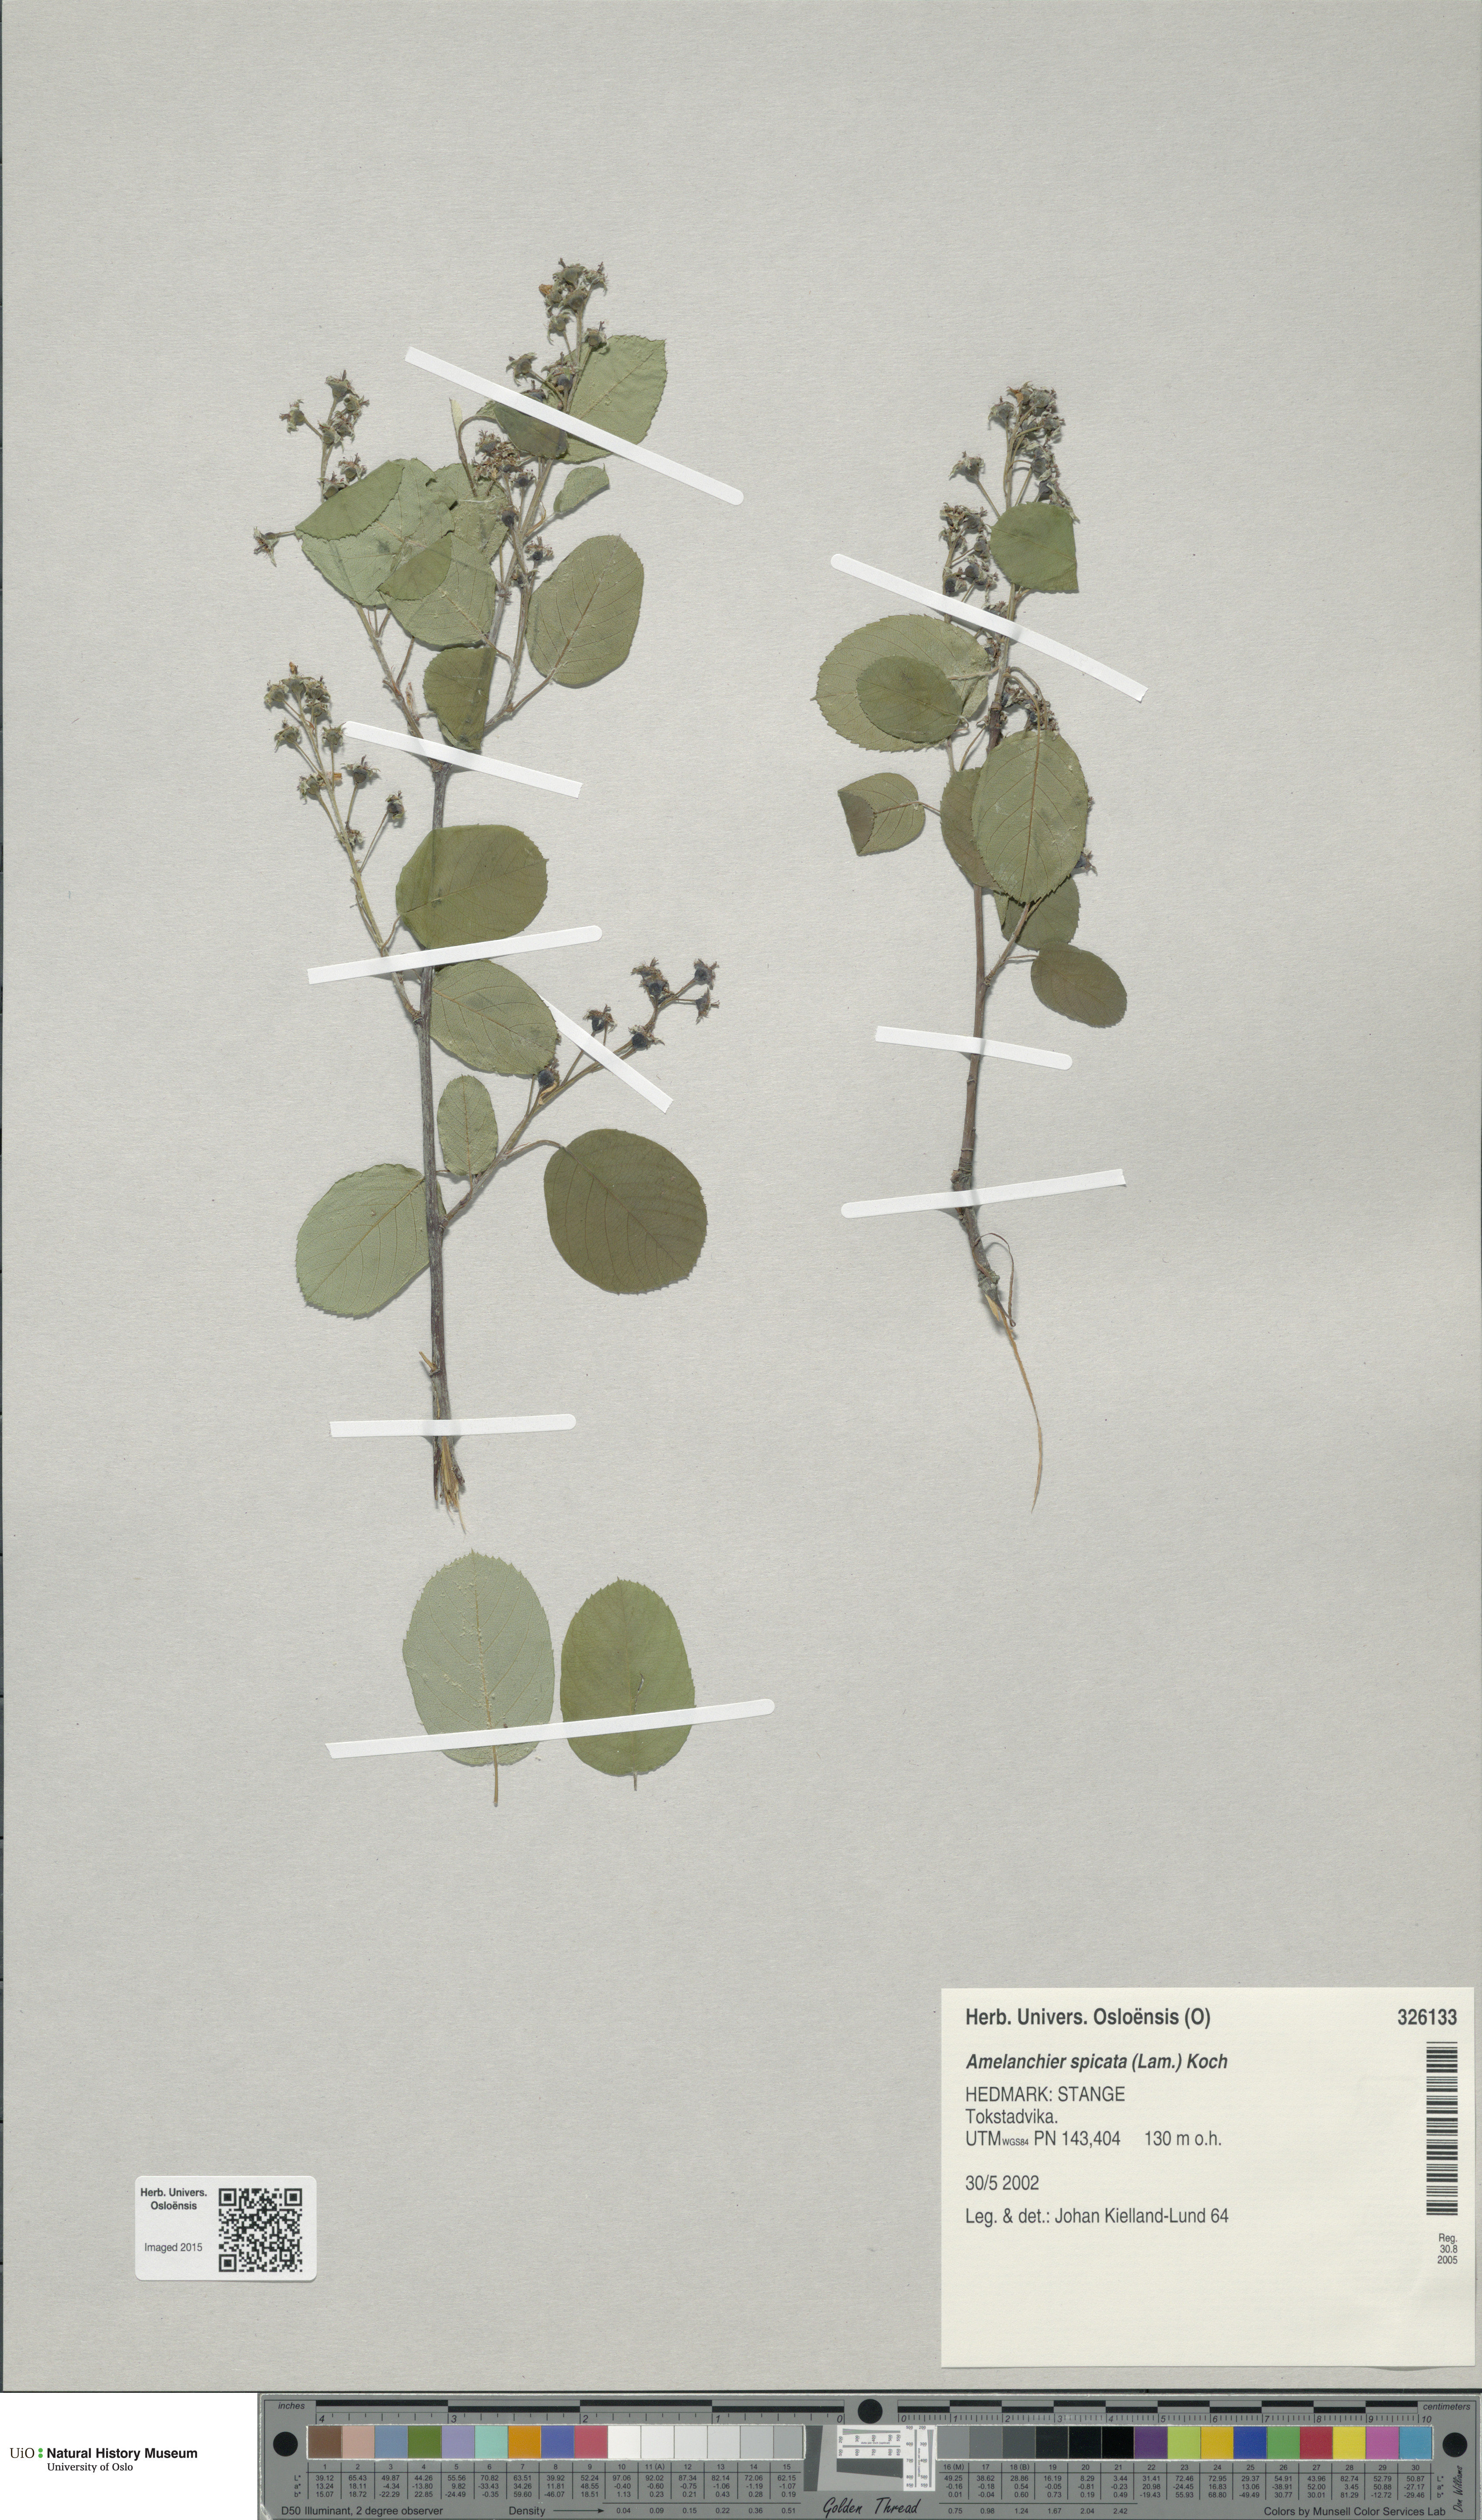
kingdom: Plantae
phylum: Tracheophyta
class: Magnoliopsida
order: Rosales
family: Rosaceae
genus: Amelanchier
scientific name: Amelanchier humilis
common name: Low juneberry
